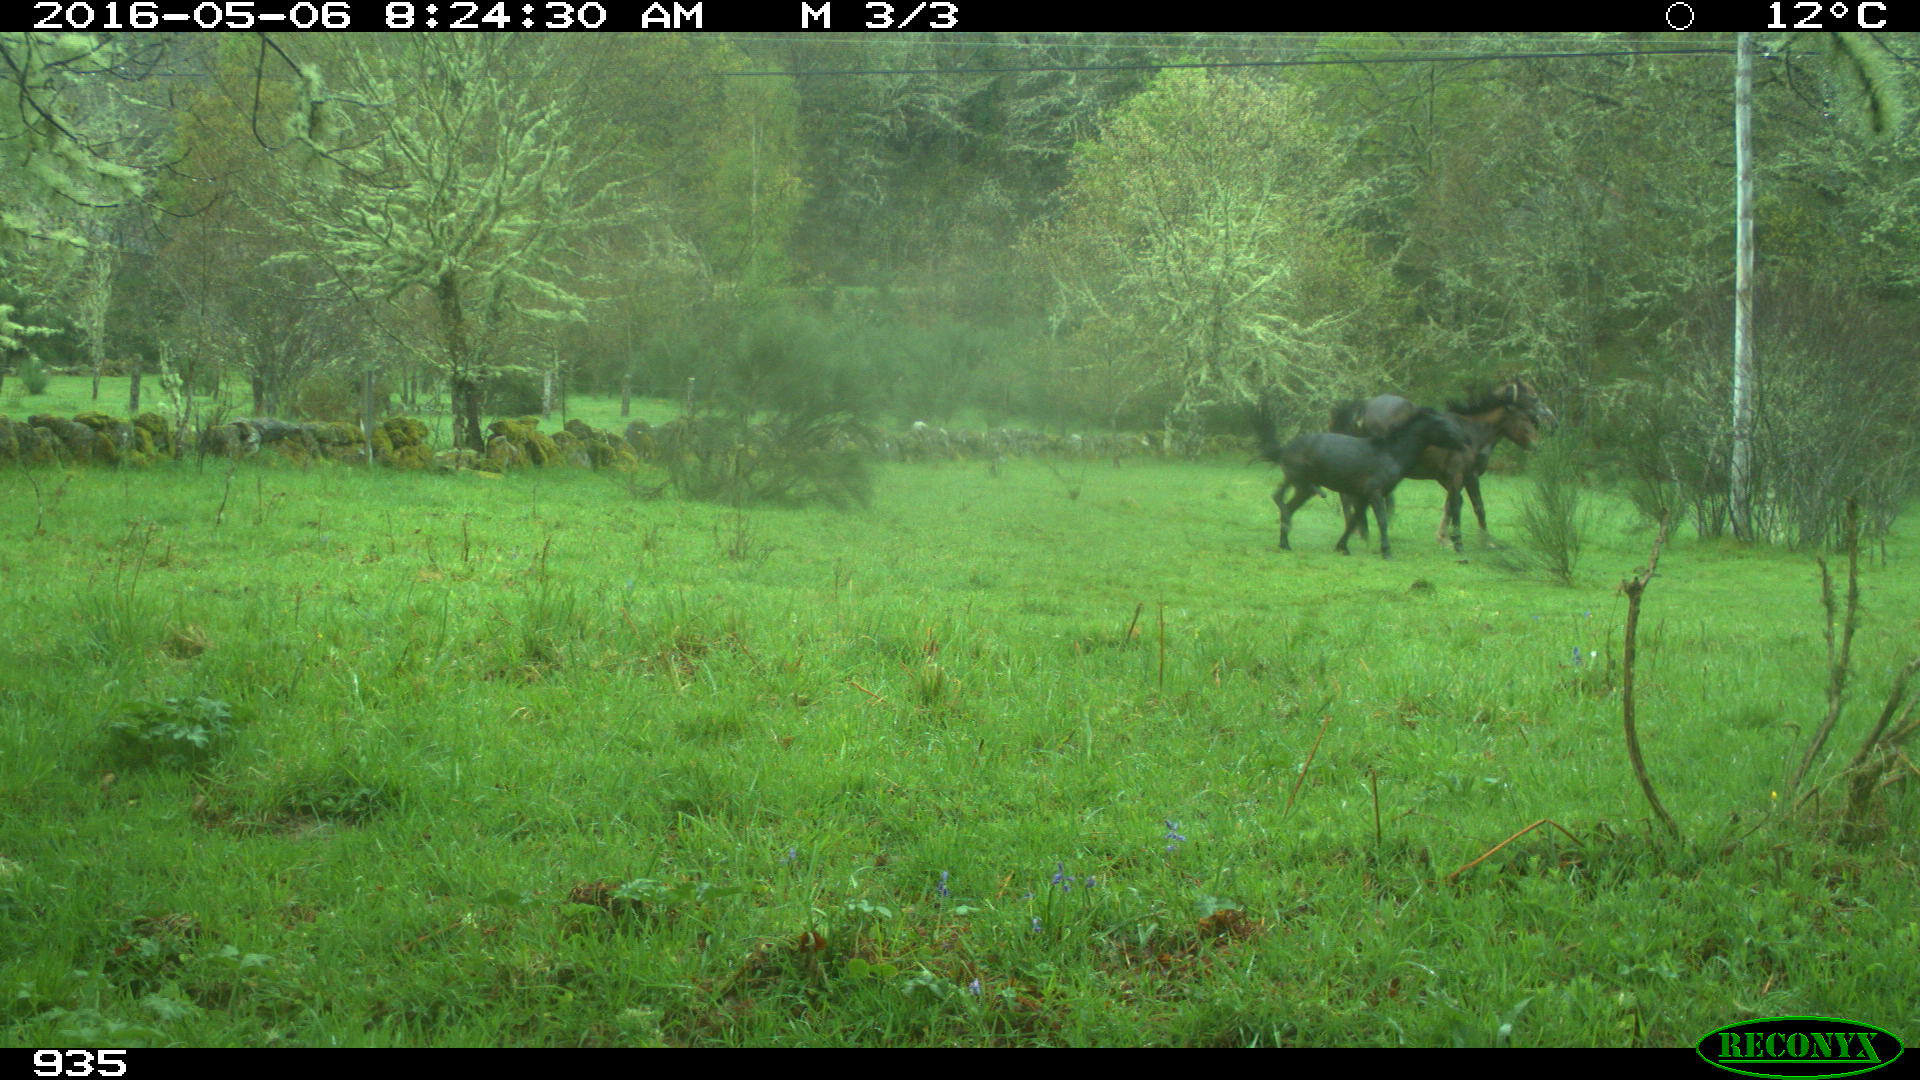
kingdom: Animalia
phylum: Chordata
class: Mammalia
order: Perissodactyla
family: Equidae
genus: Equus
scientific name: Equus caballus
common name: Horse
